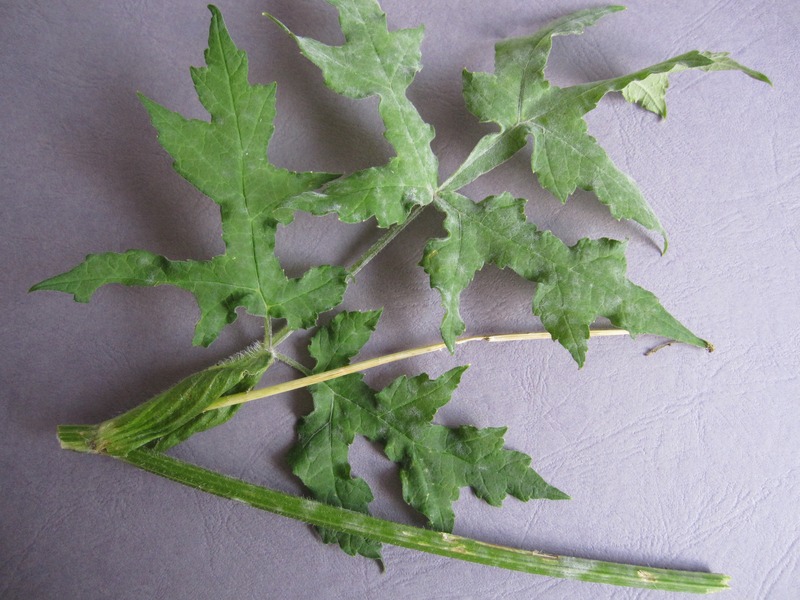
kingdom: Fungi
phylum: Ascomycota
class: Leotiomycetes
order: Helotiales
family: Erysiphaceae
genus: Erysiphe
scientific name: Erysiphe heraclei
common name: Umbellifer mildew
